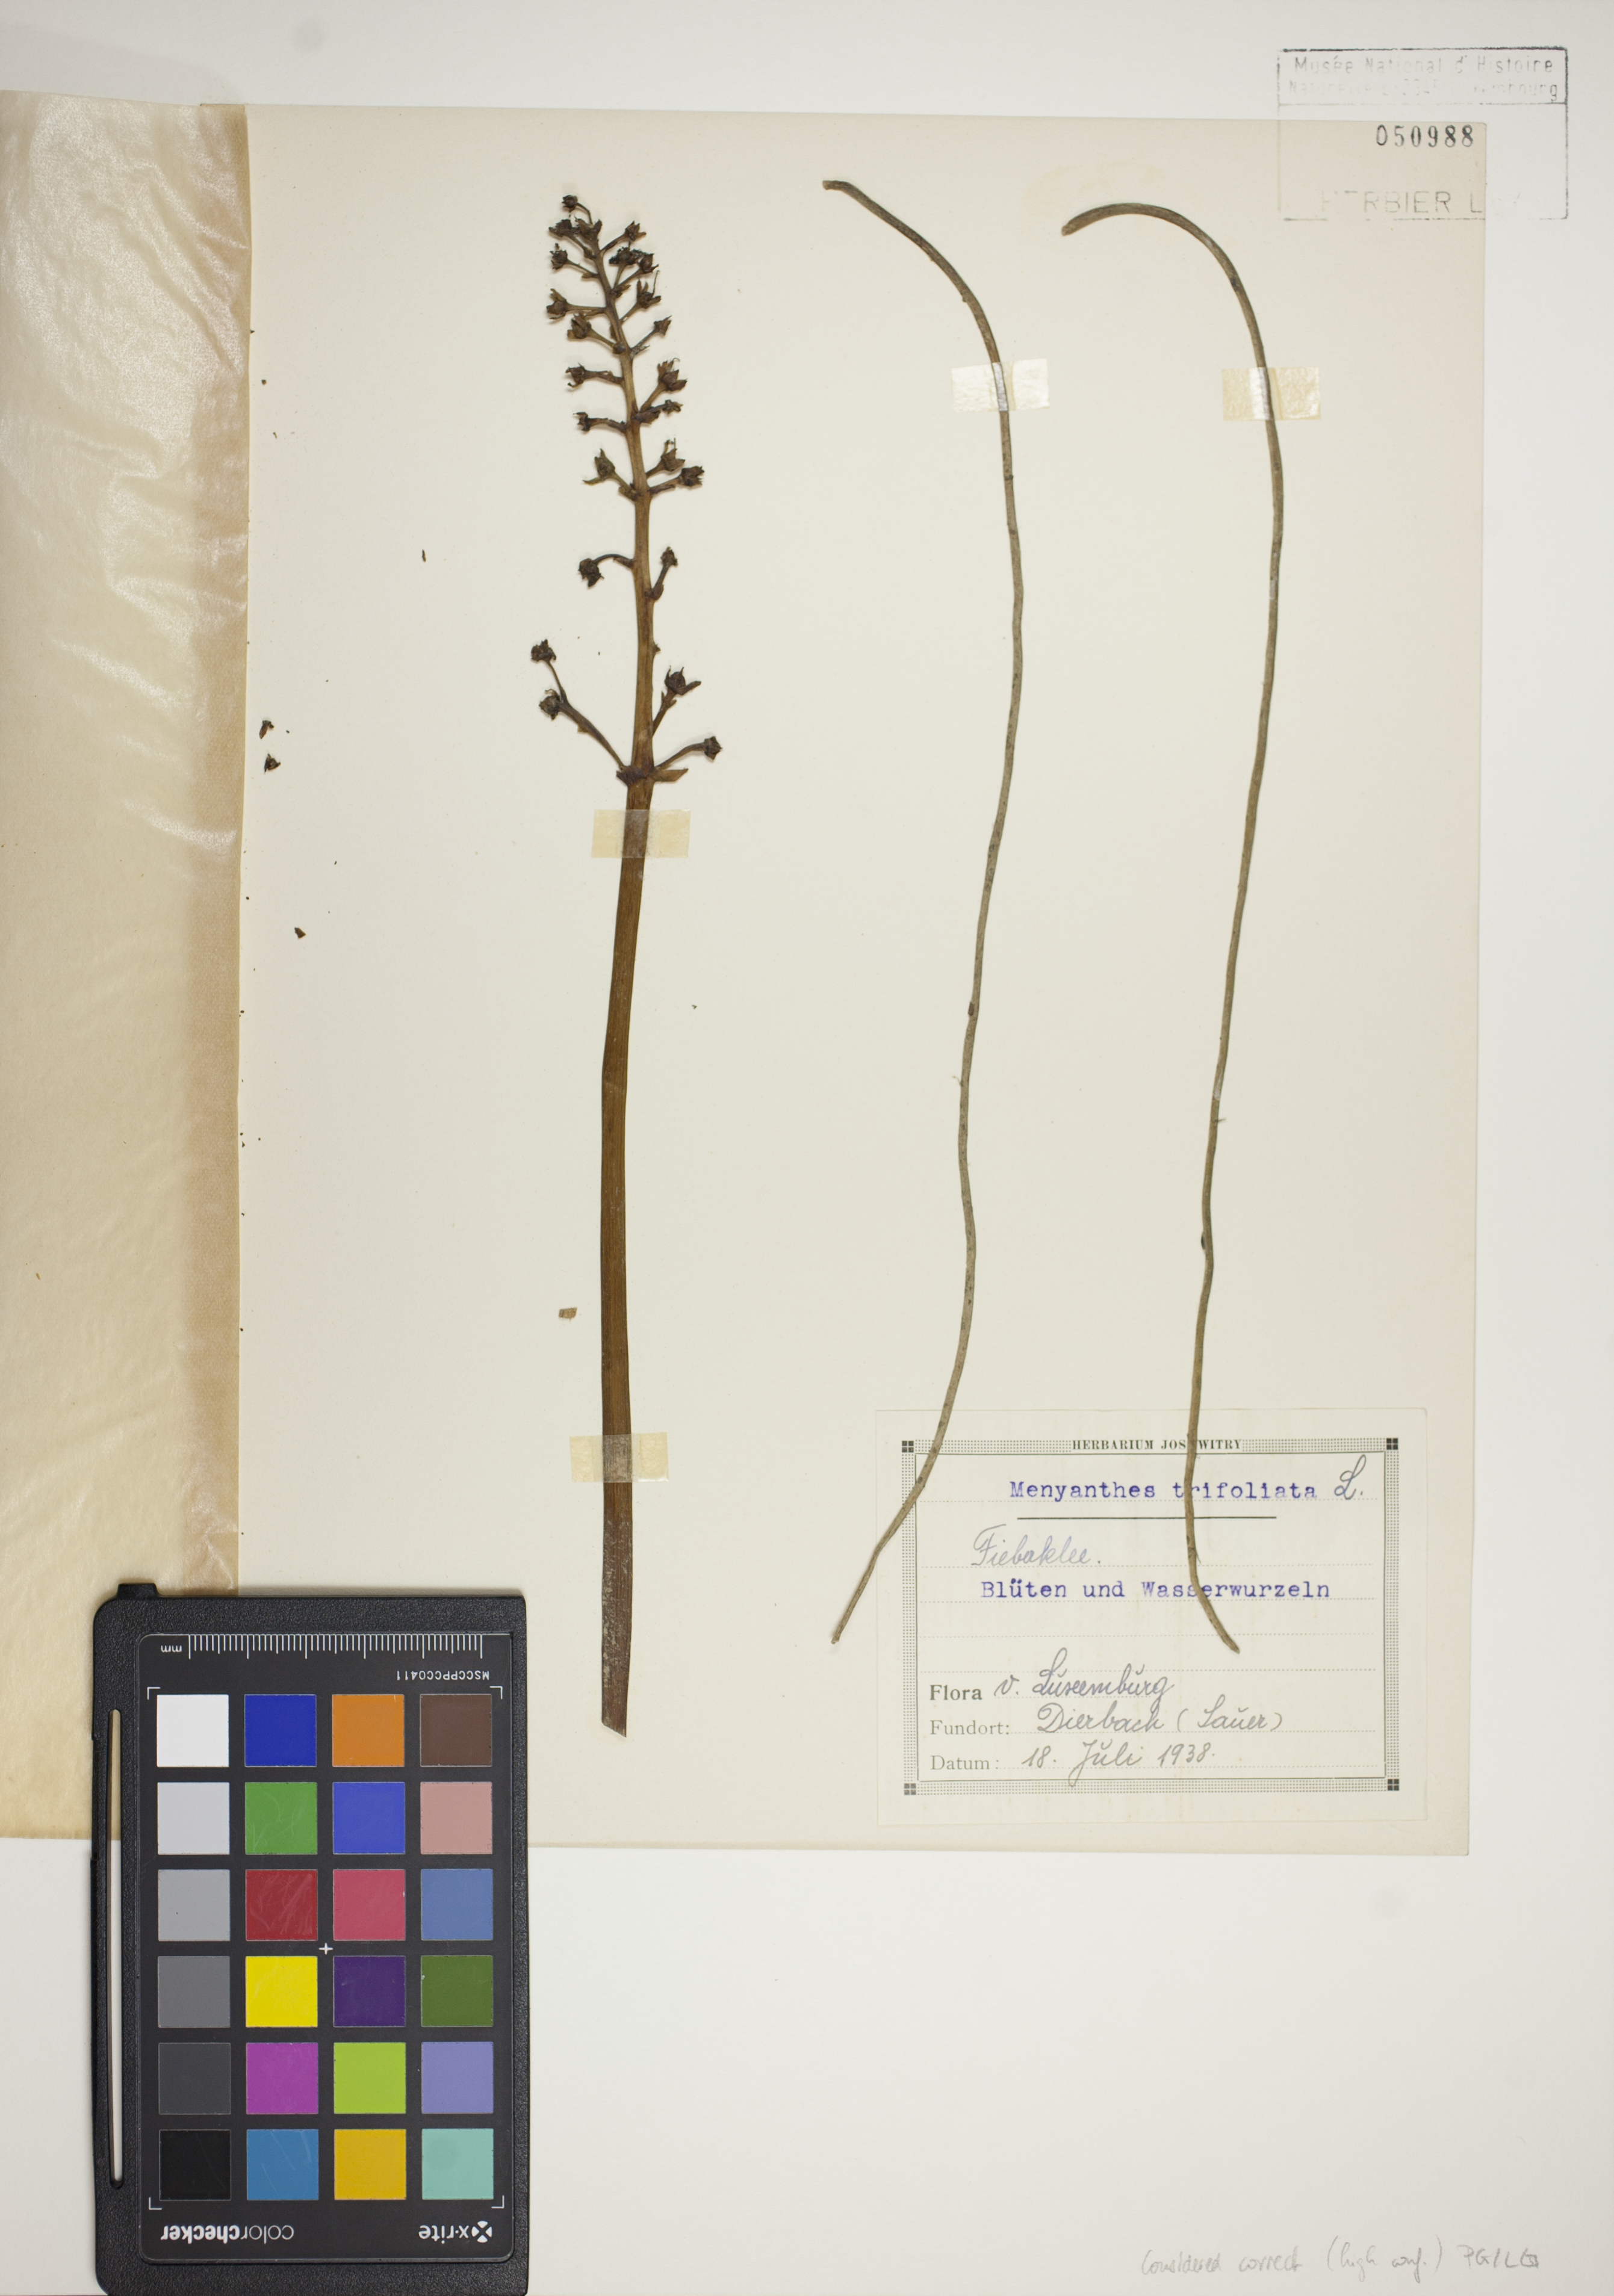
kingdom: Plantae
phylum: Tracheophyta
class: Magnoliopsida
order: Asterales
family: Menyanthaceae
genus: Menyanthes
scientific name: Menyanthes trifoliata
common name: Bogbean
